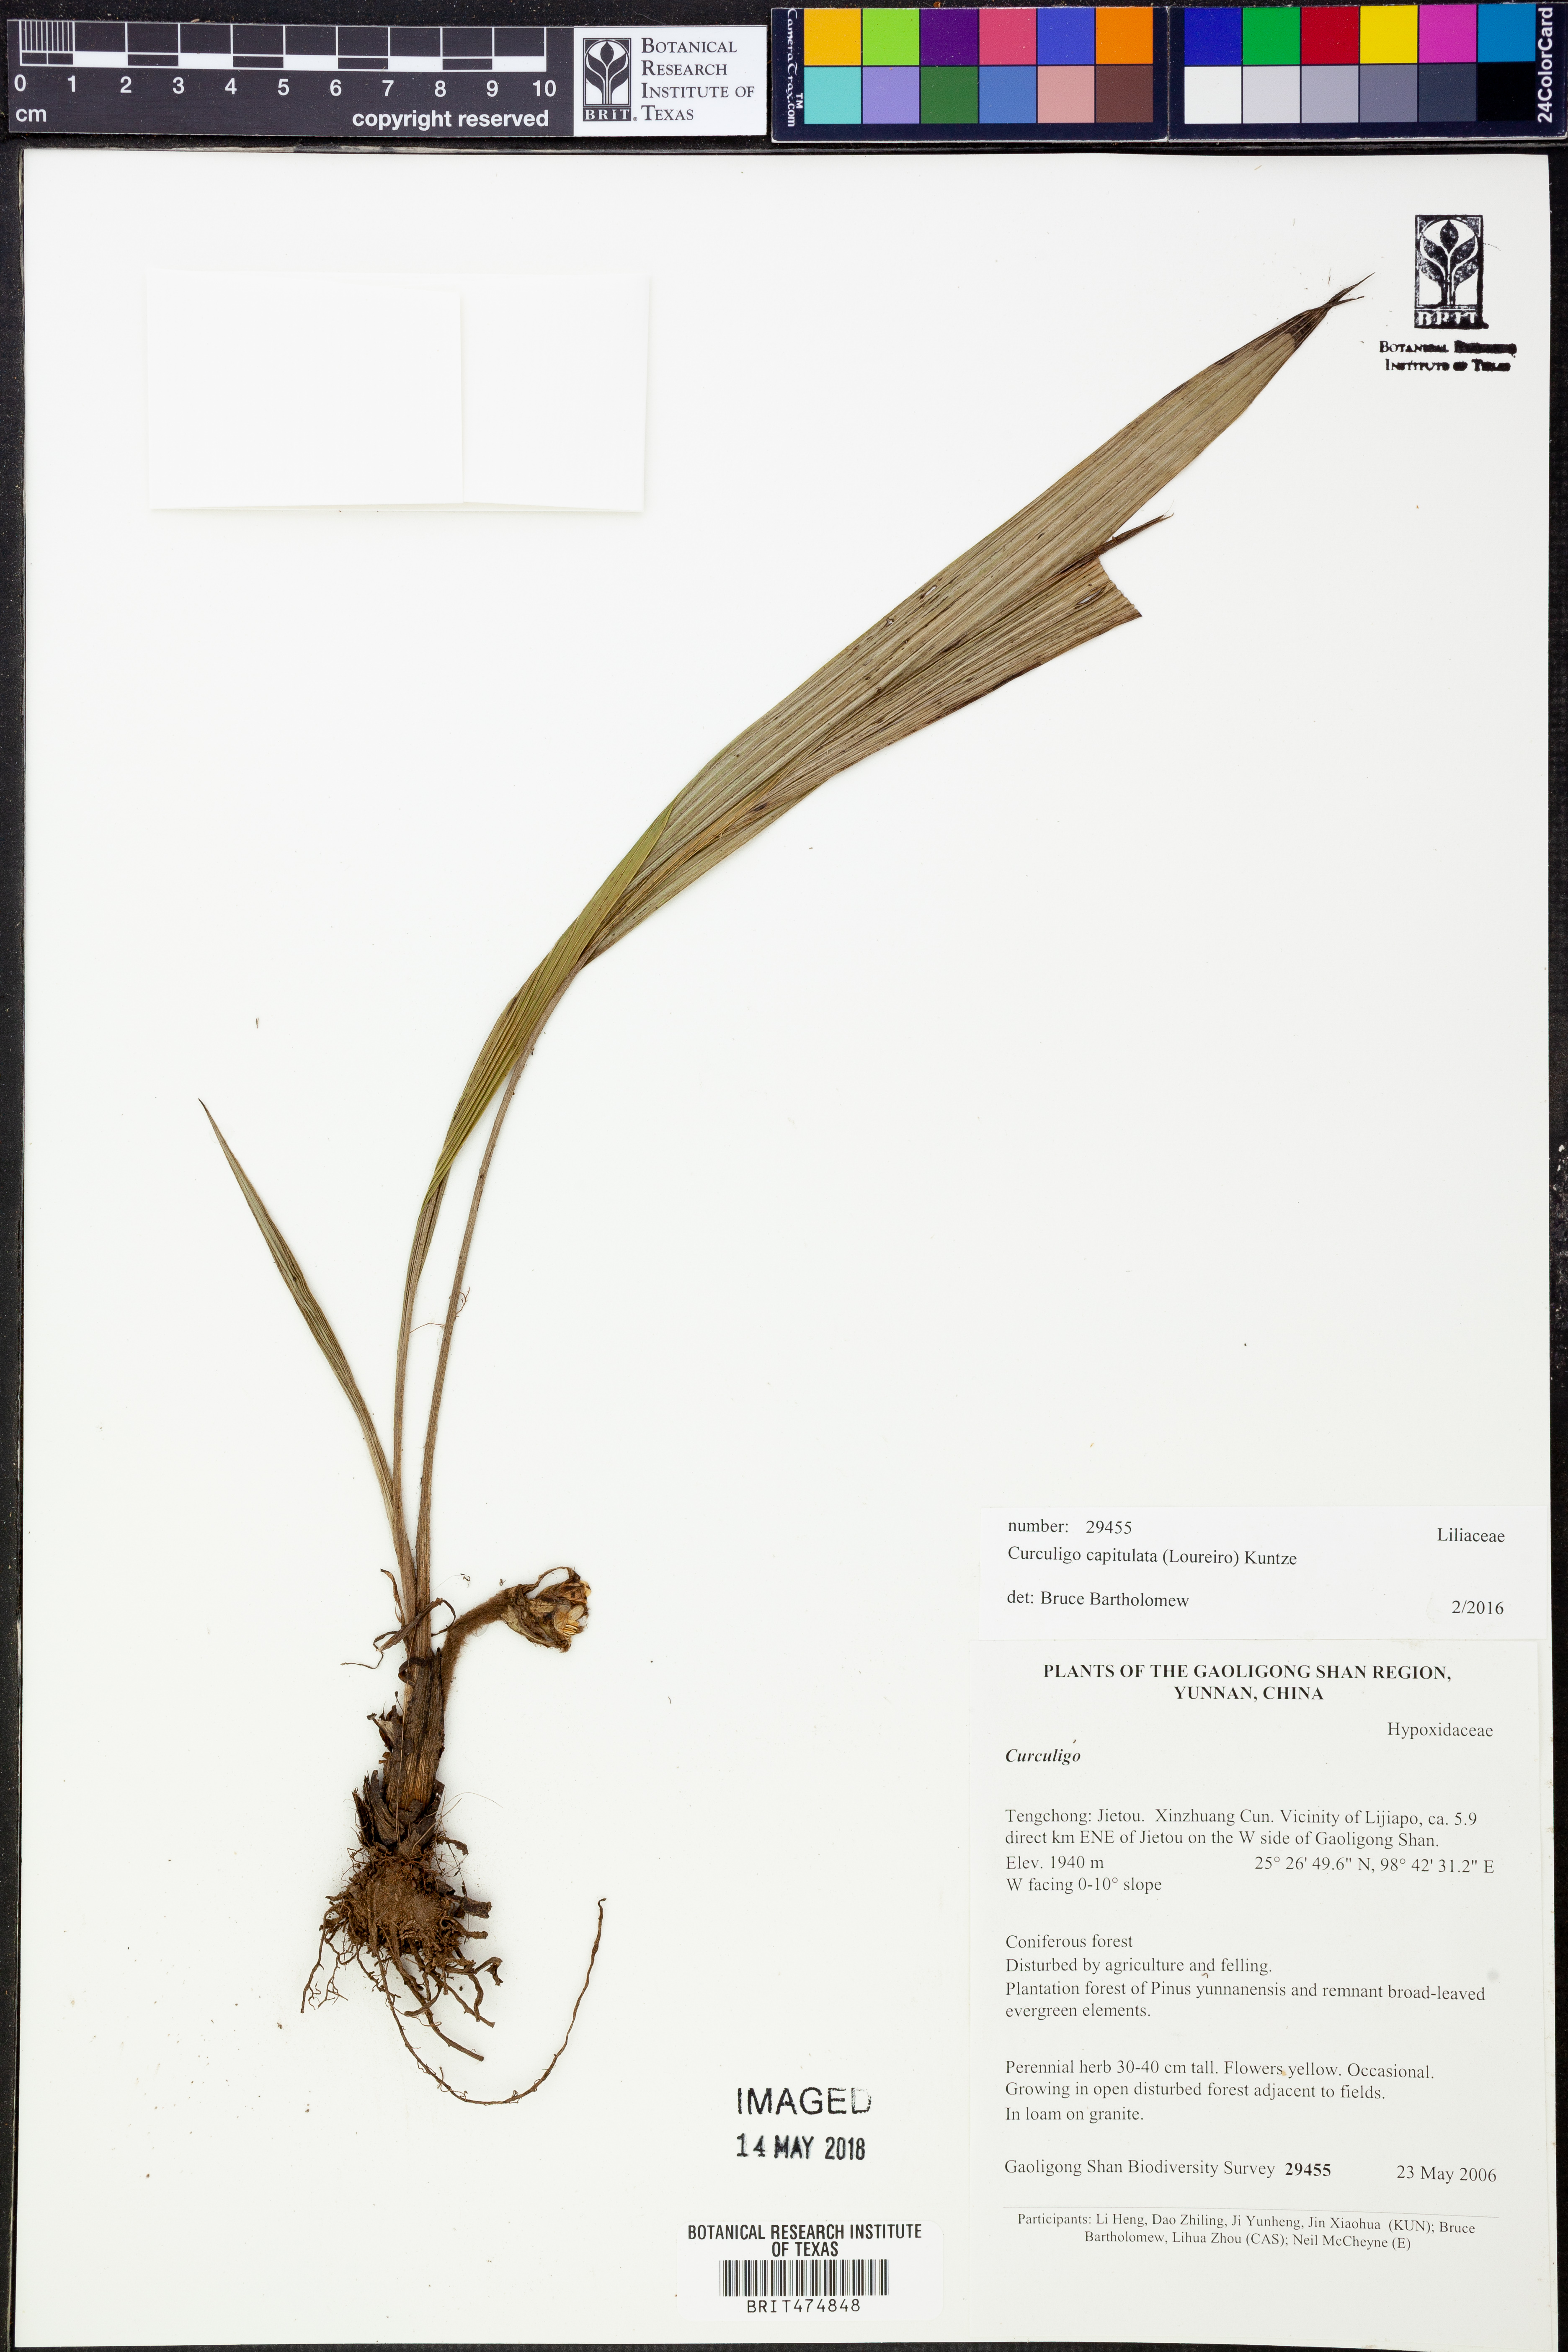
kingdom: Plantae
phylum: Tracheophyta
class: Liliopsida
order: Asparagales
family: Hypoxidaceae
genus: Curculigo
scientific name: Curculigo capitulata
